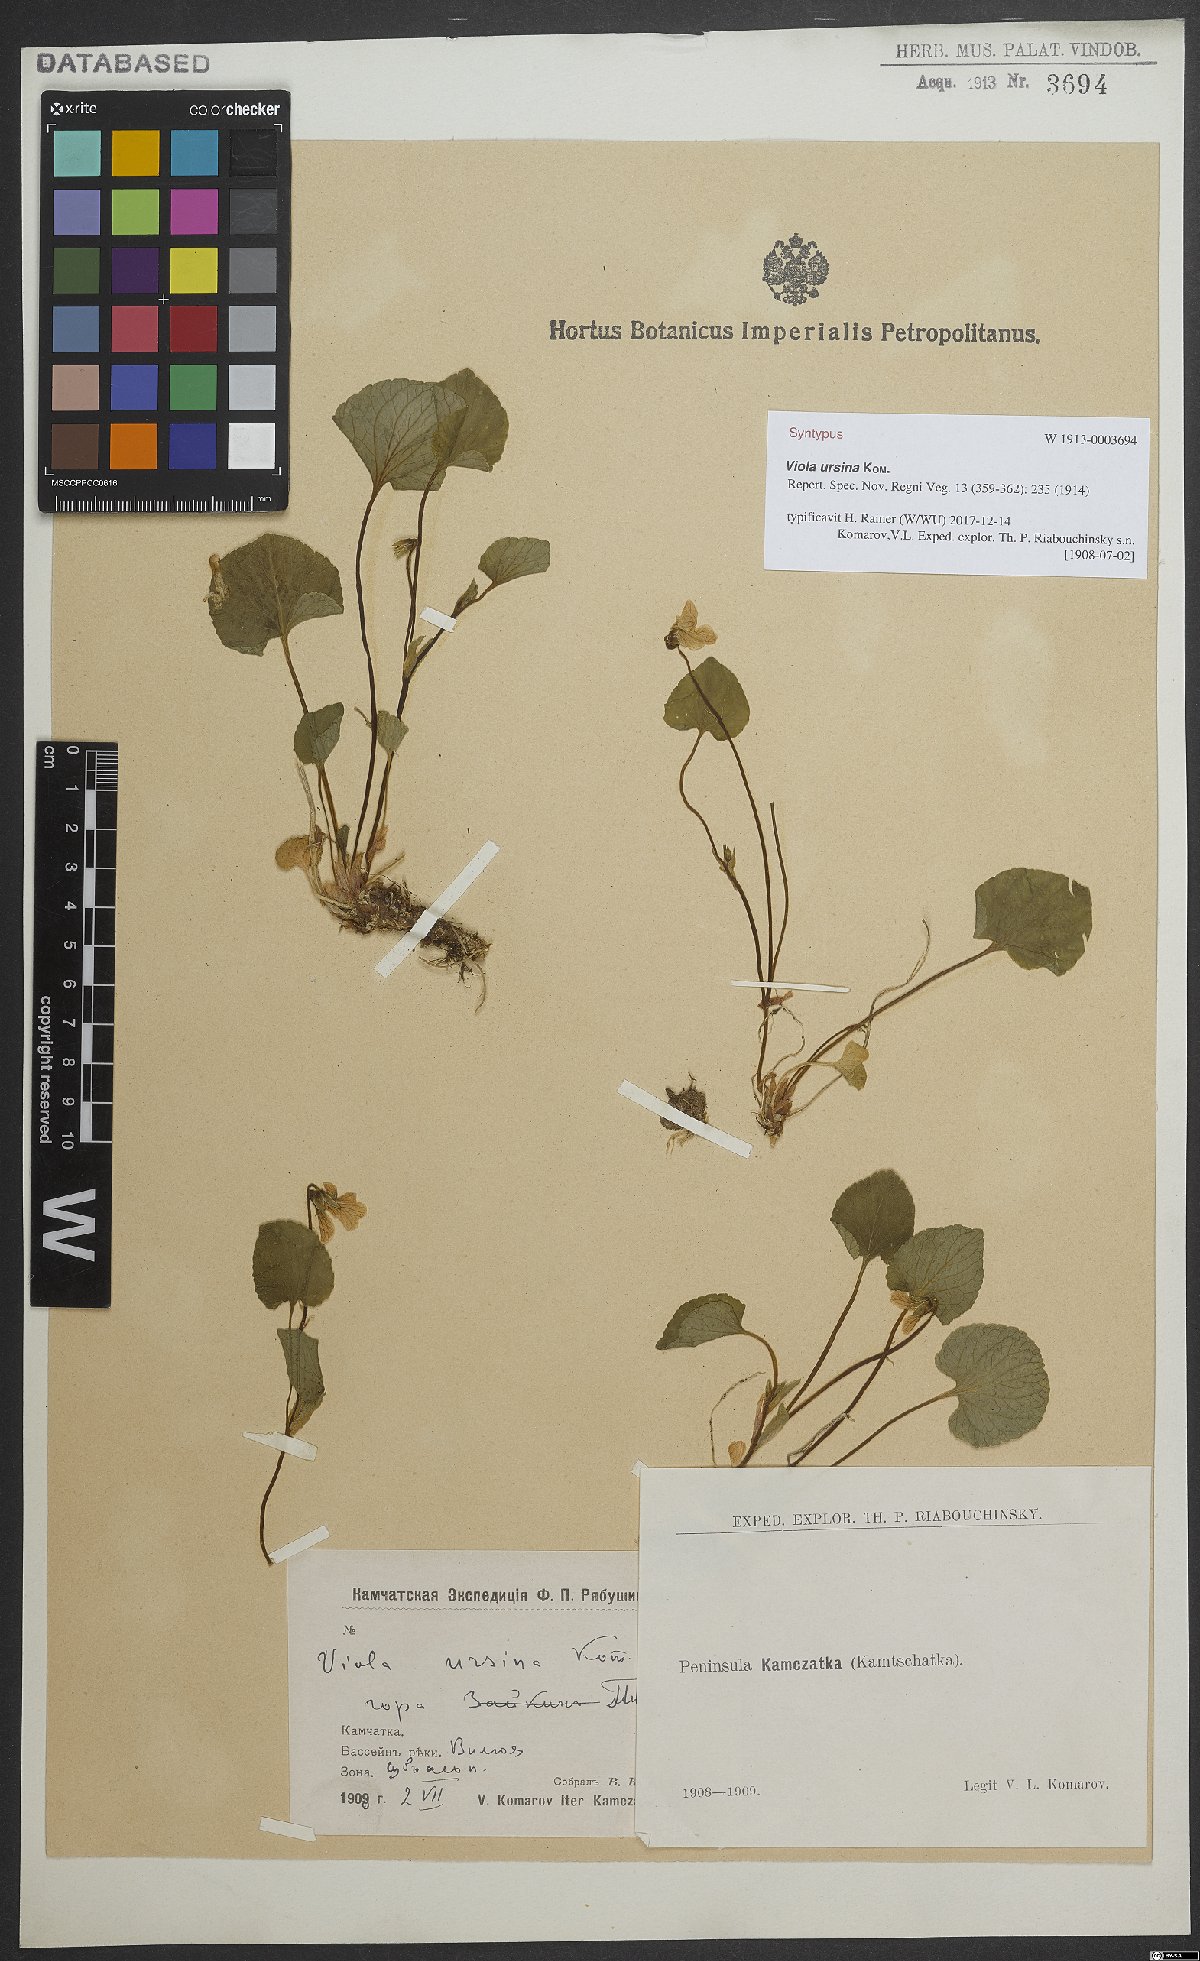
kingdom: Plantae
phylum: Tracheophyta
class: Magnoliopsida
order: Malpighiales
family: Violaceae
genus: Viola
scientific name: Viola langsdorfii
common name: Alaska violet
